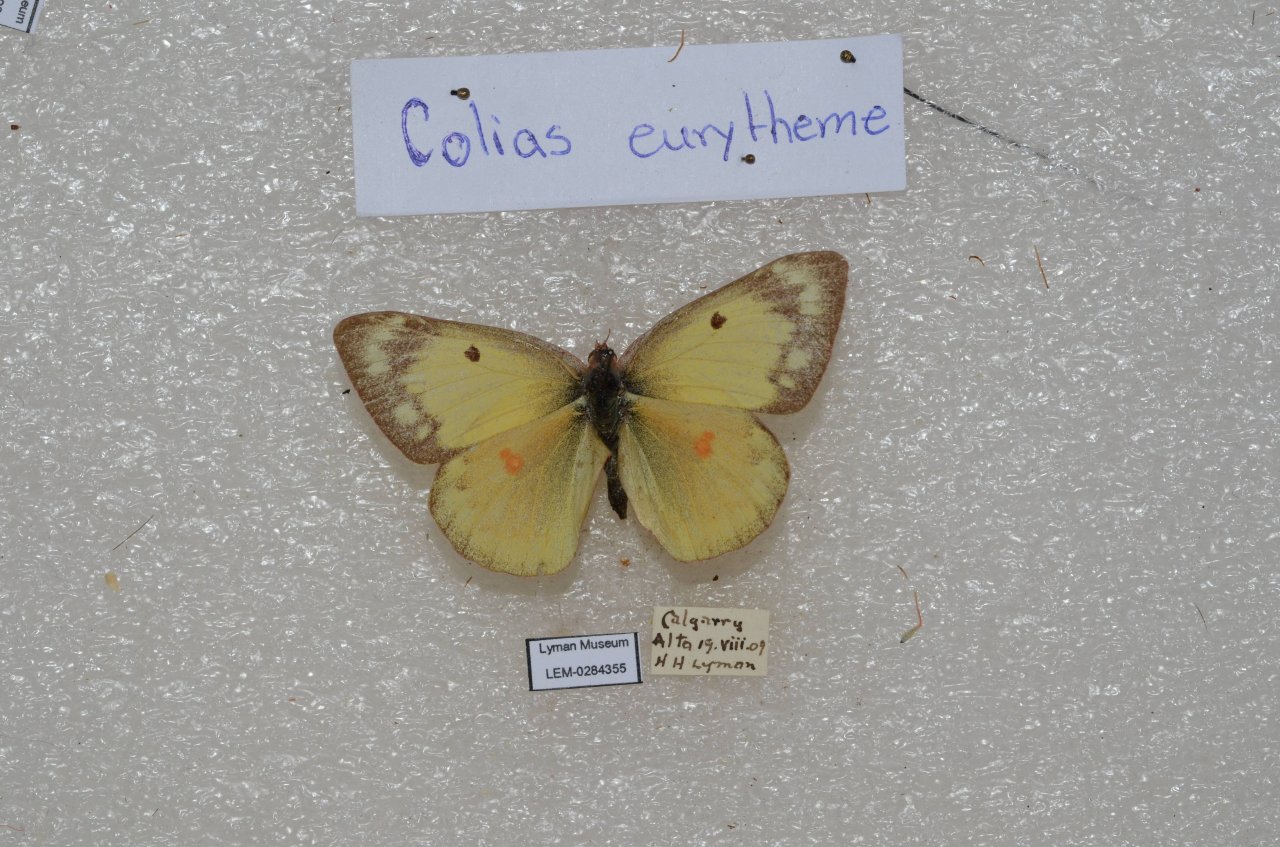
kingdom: Animalia
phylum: Arthropoda
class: Insecta
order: Lepidoptera
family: Pieridae
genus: Colias
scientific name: Colias eurytheme
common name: Orange Sulphur
